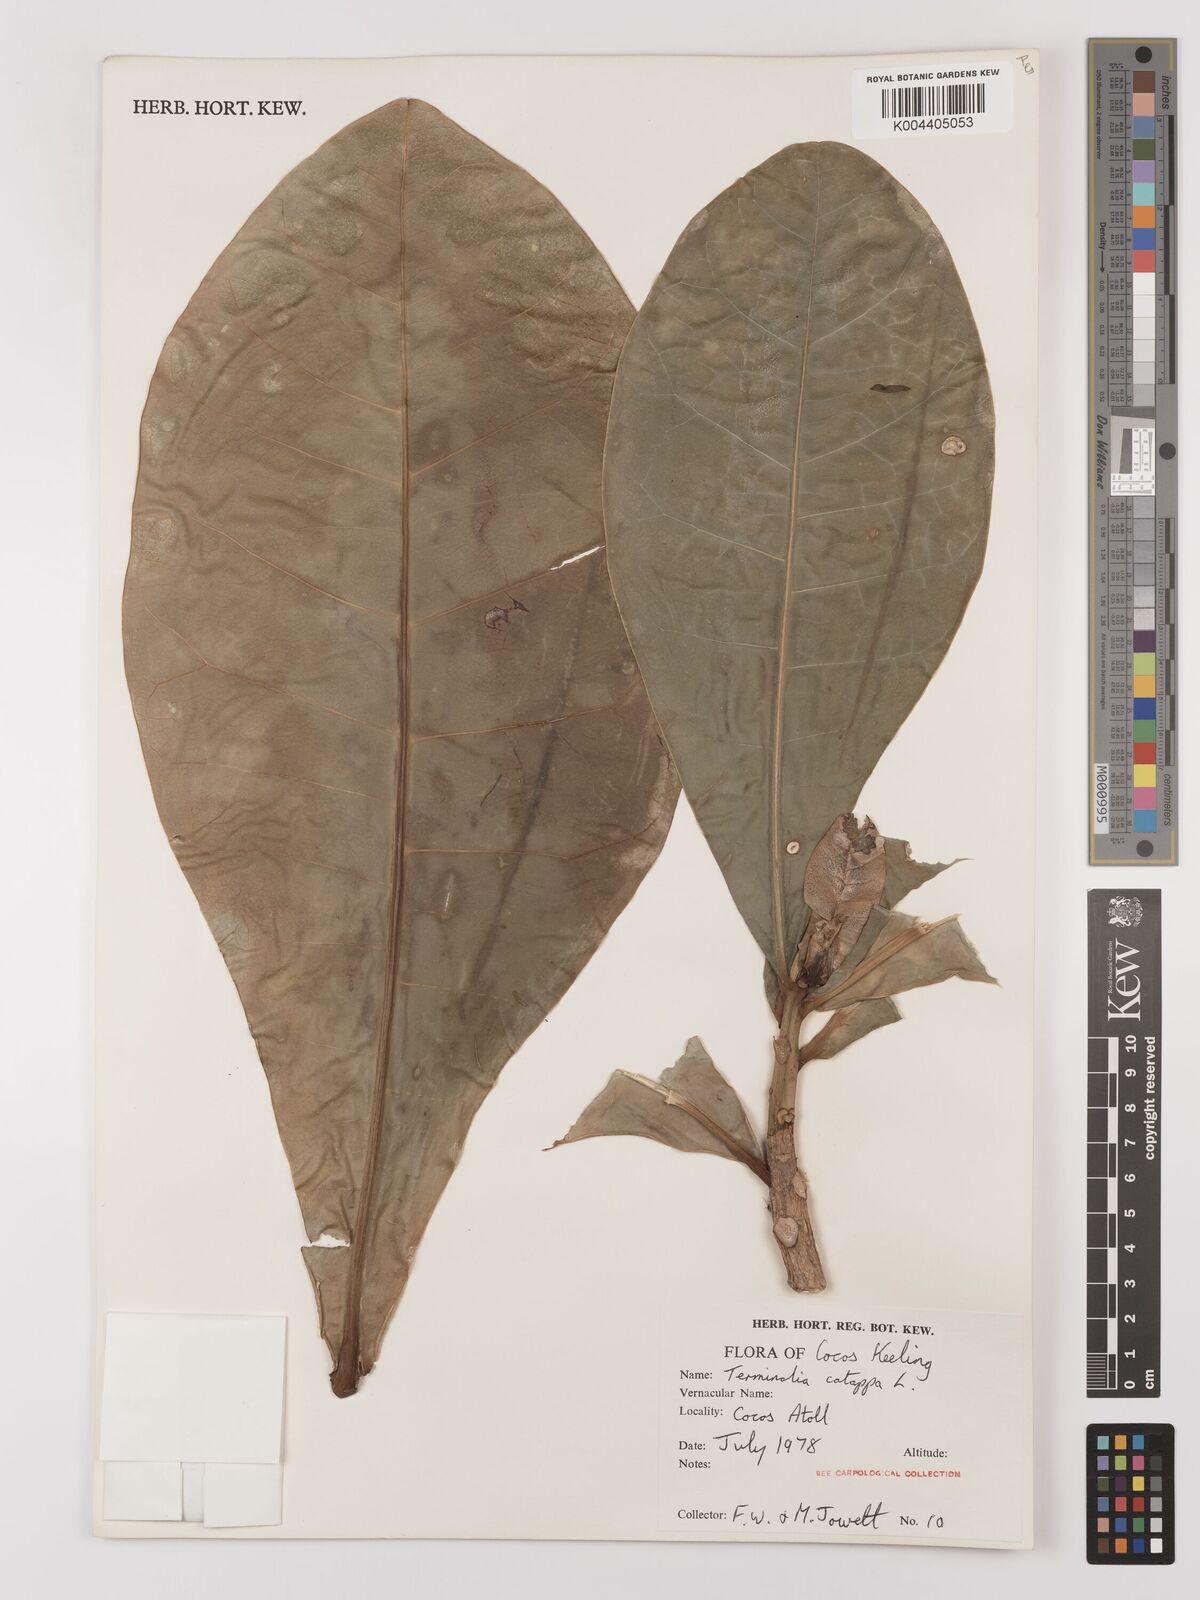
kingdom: Plantae
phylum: Tracheophyta
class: Magnoliopsida
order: Myrtales
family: Combretaceae
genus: Terminalia
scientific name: Terminalia catappa
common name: Tropical almond
